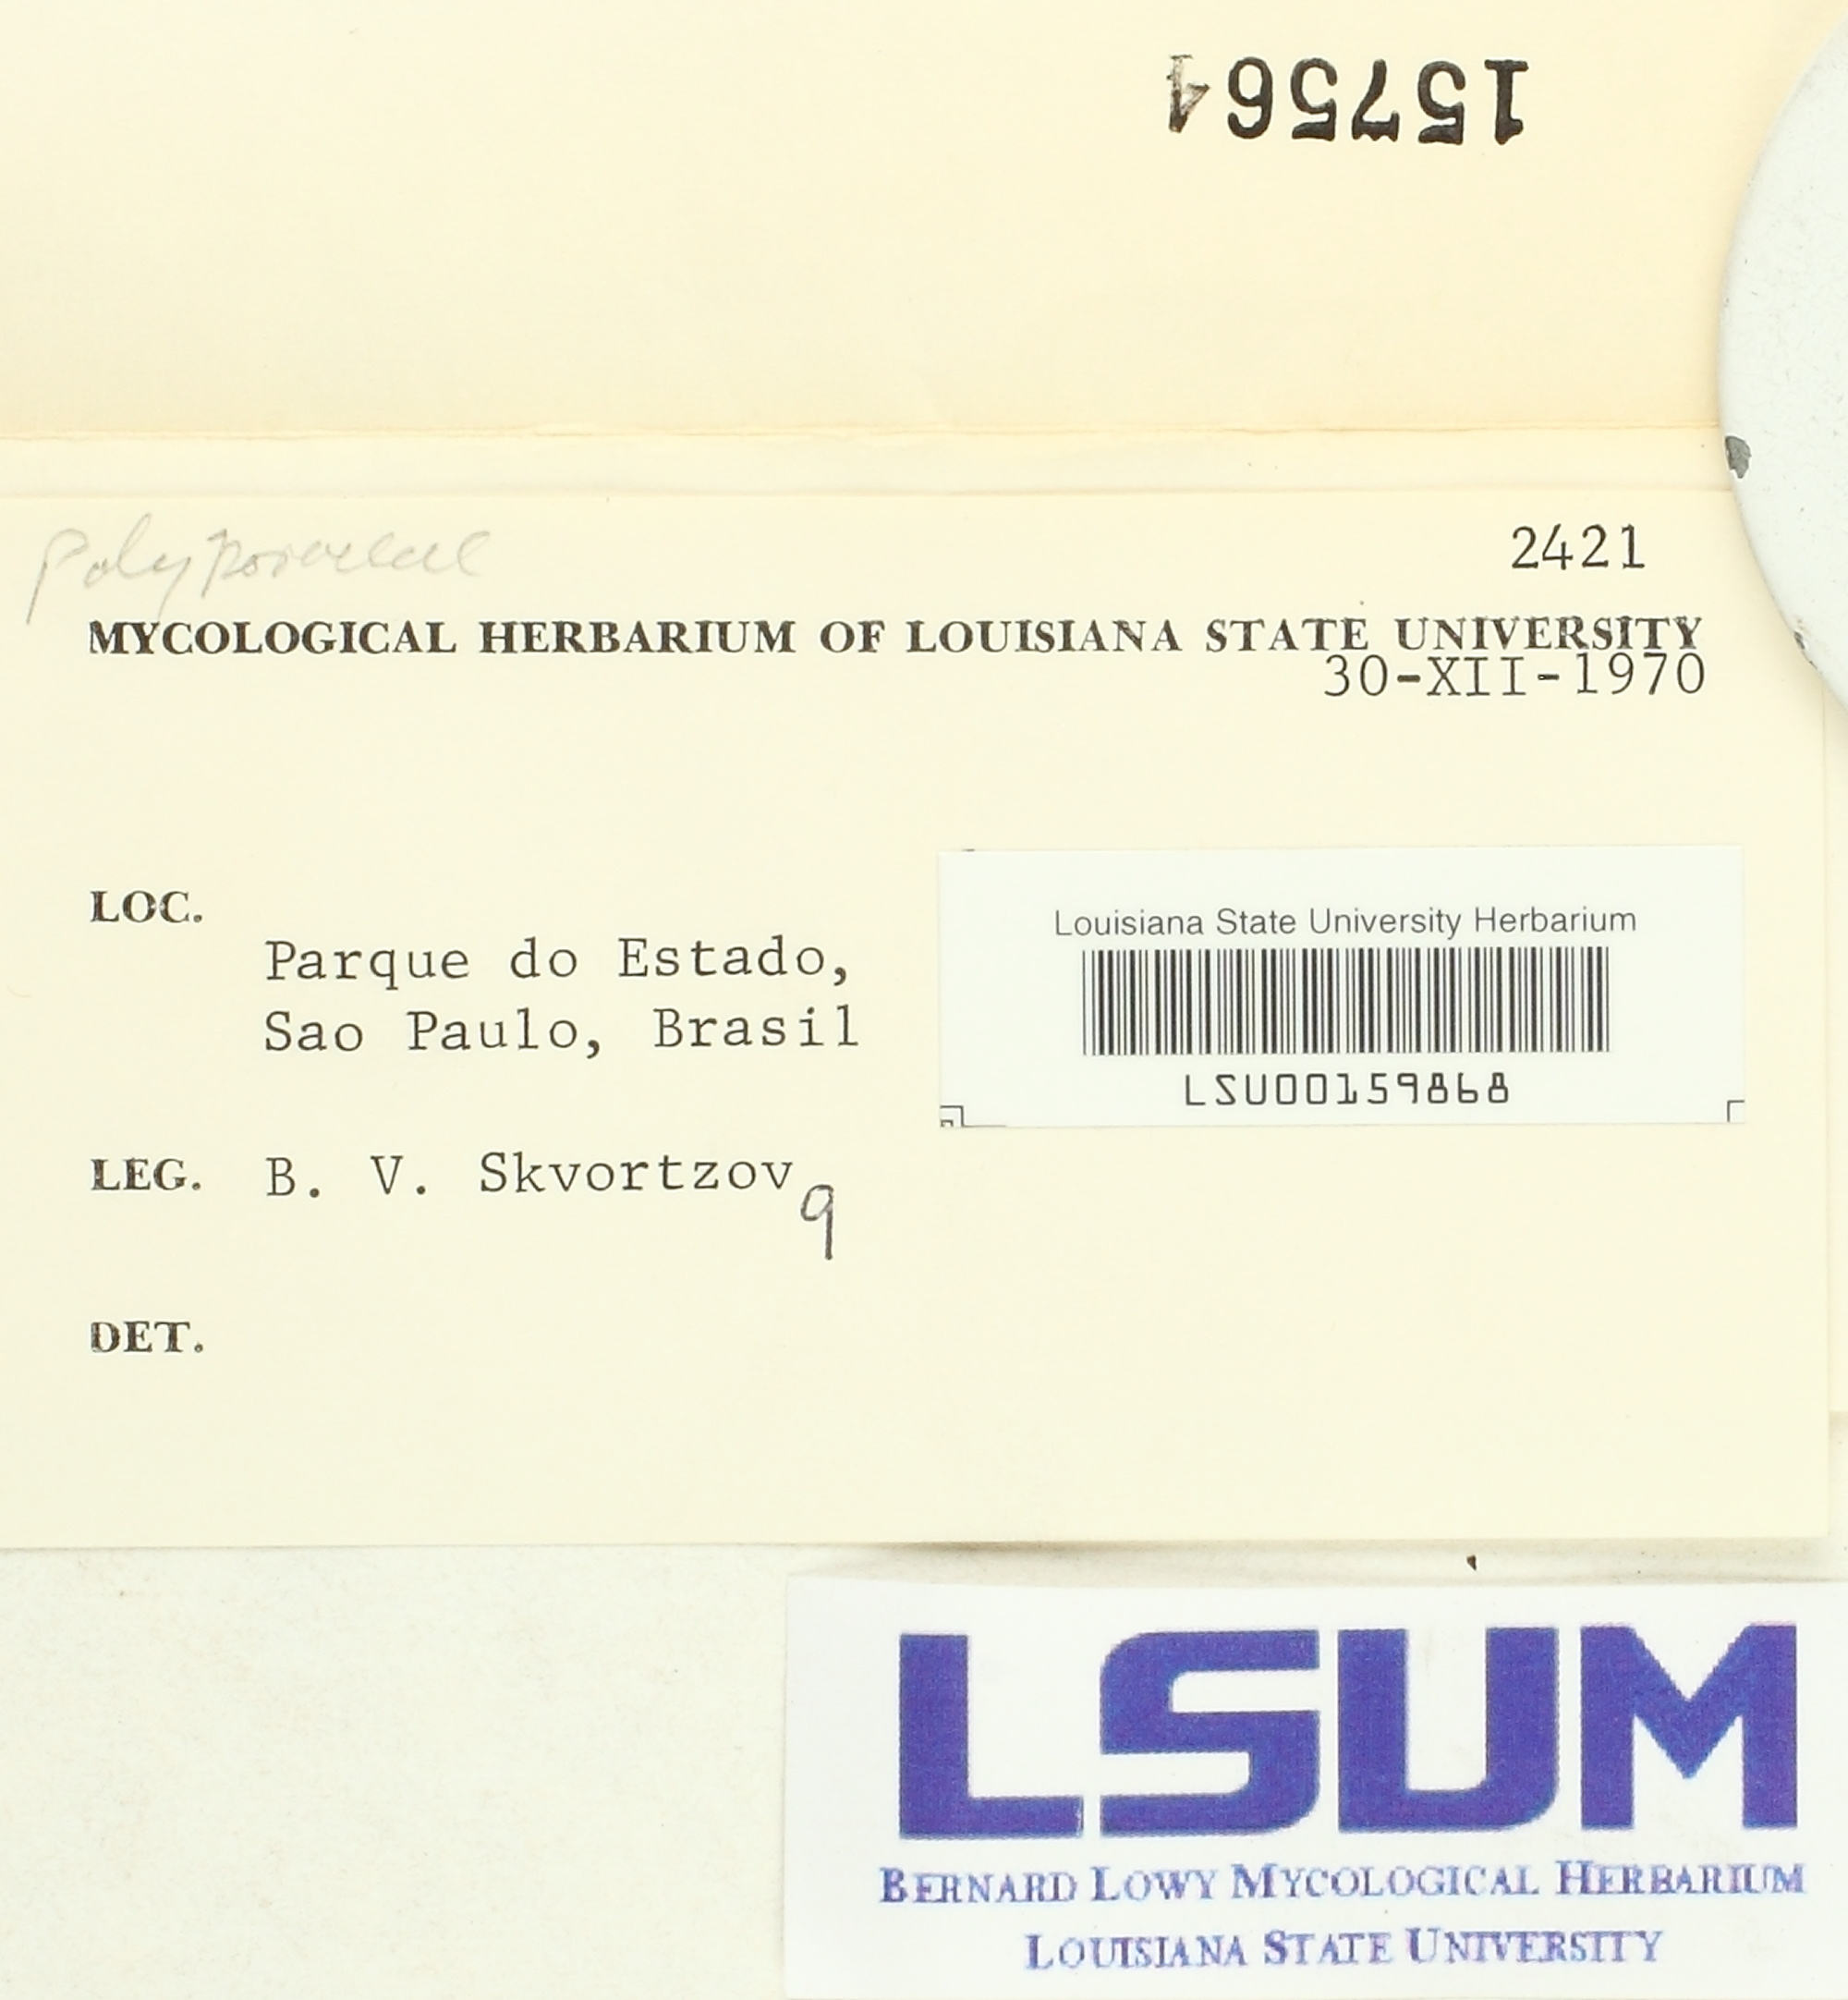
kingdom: Fungi
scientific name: Fungi
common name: Fungi
